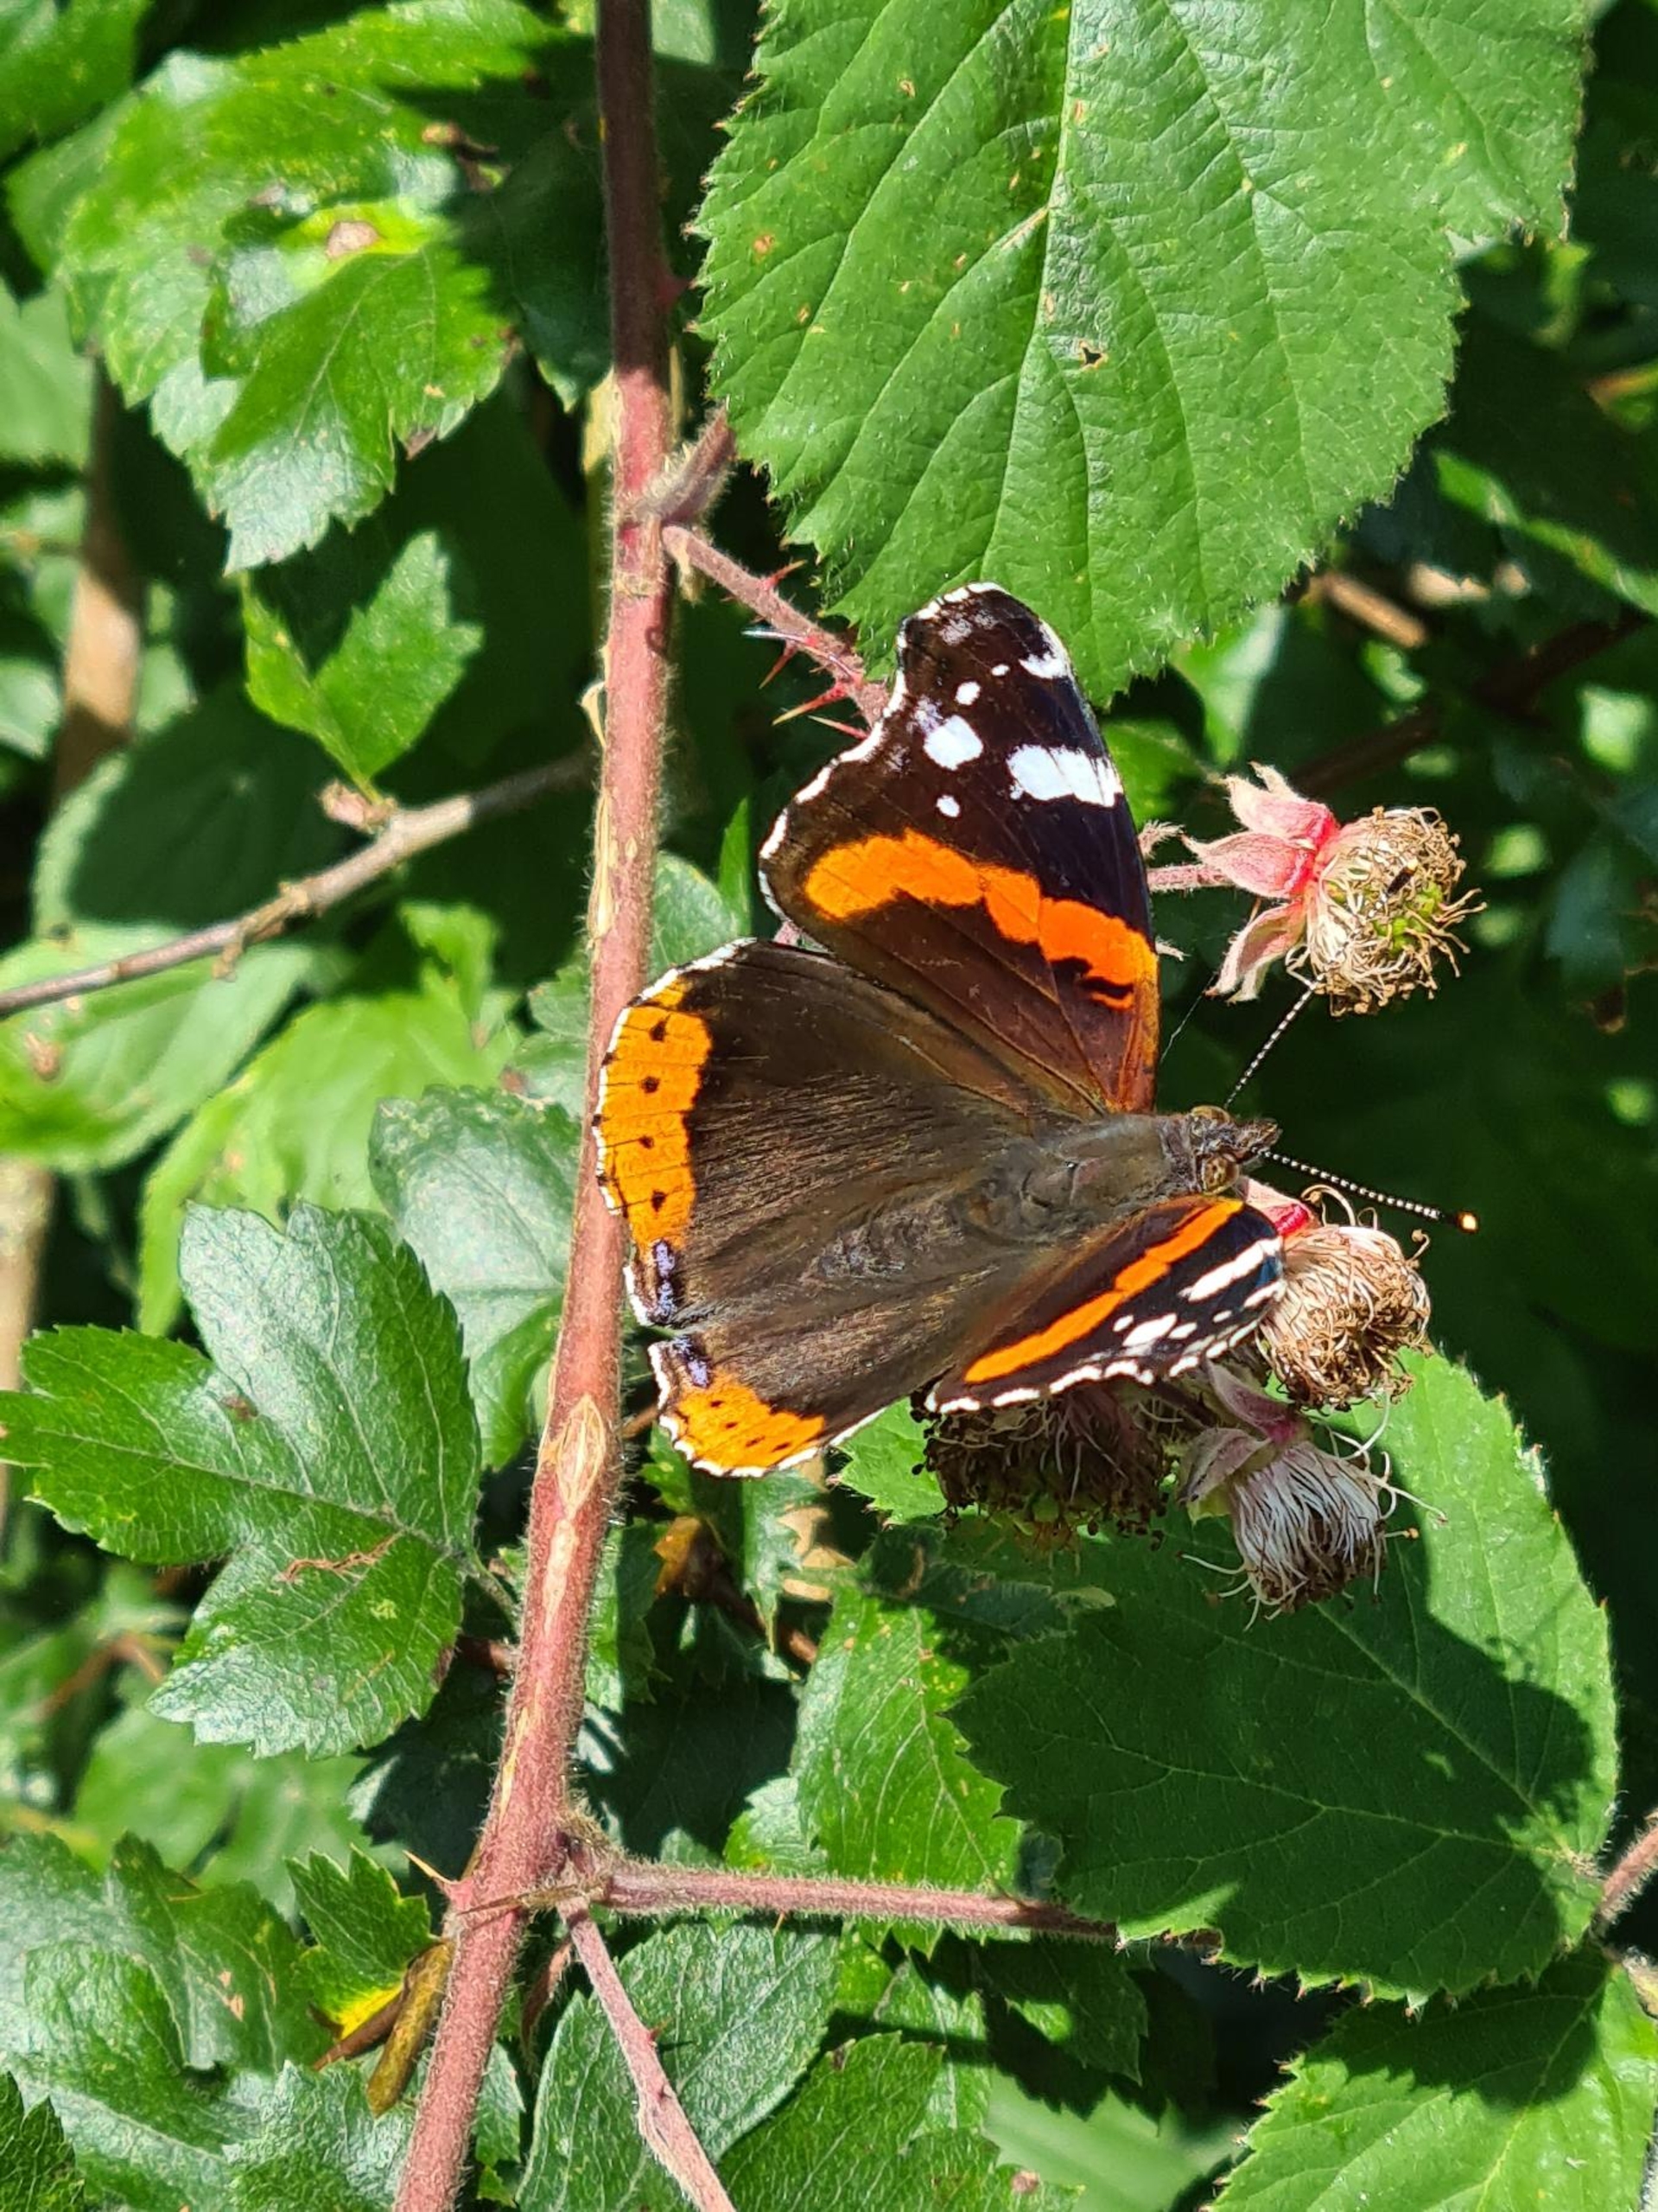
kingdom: Animalia
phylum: Arthropoda
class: Insecta
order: Lepidoptera
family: Nymphalidae
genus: Vanessa
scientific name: Vanessa atalanta
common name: Admiral
